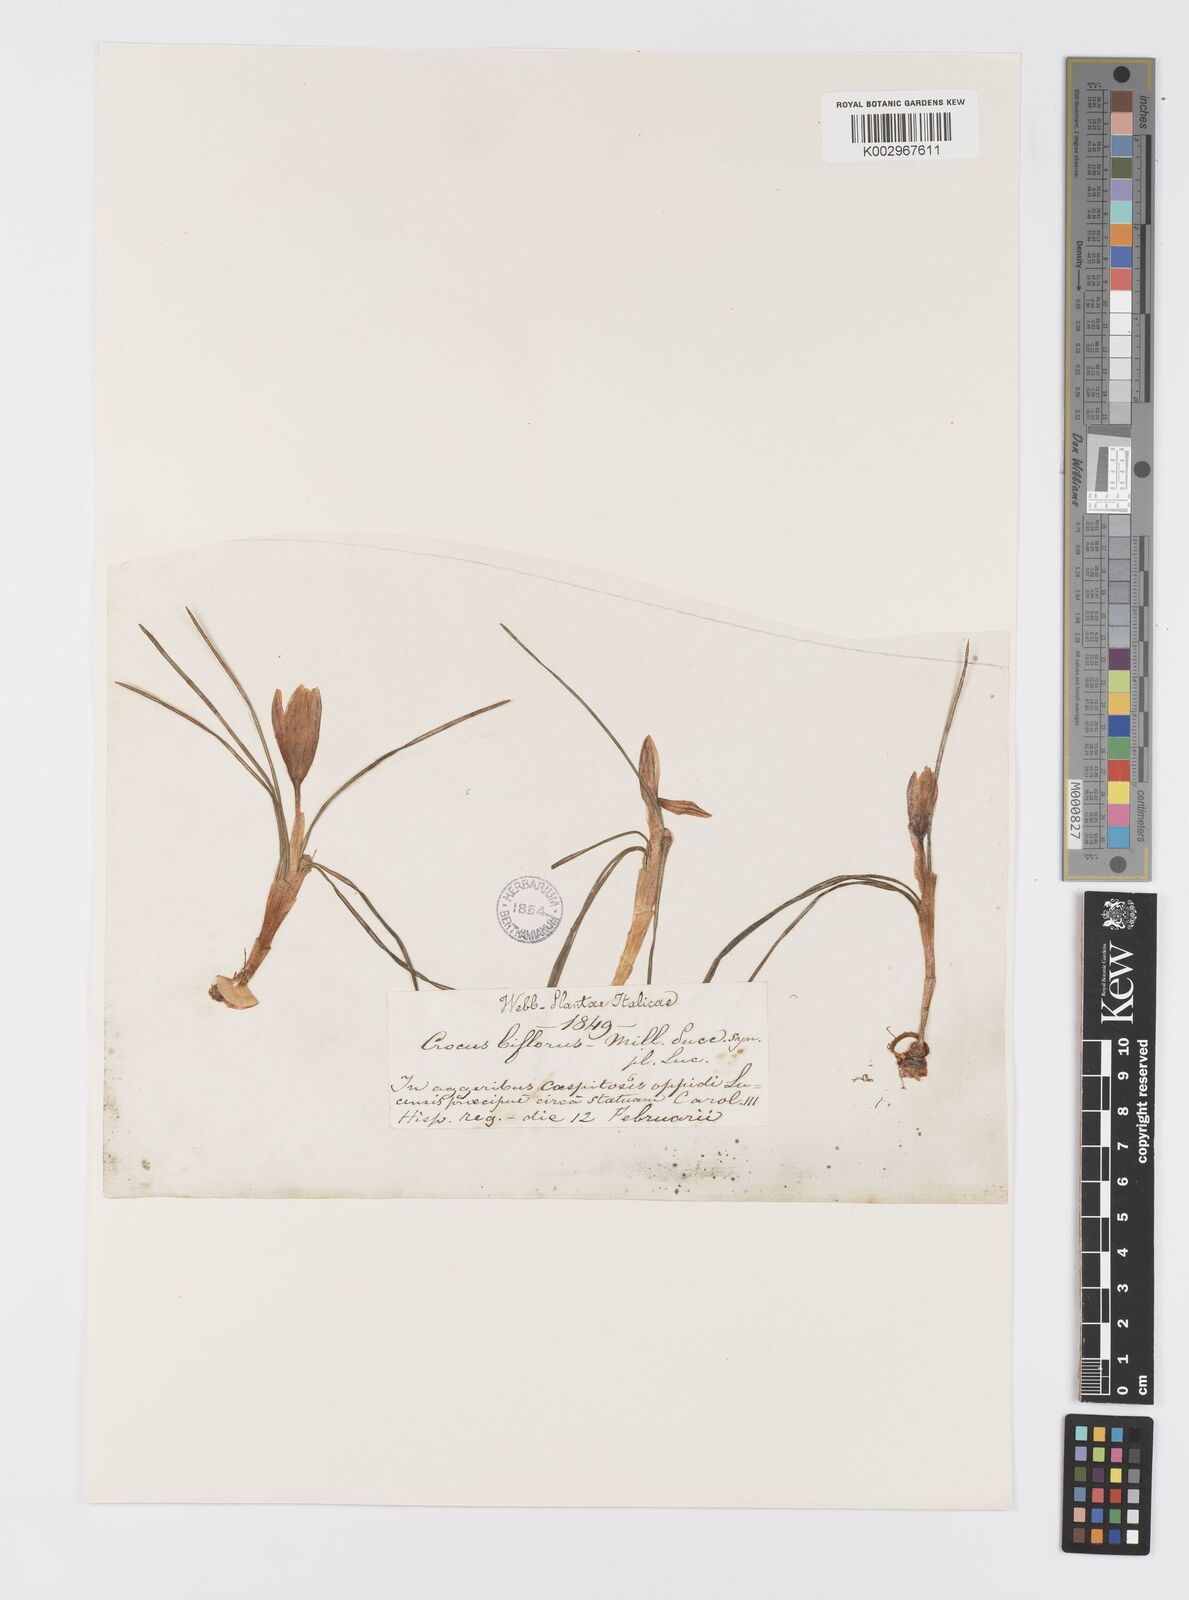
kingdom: Plantae
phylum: Tracheophyta
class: Liliopsida
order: Asparagales
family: Iridaceae
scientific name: Iridaceae
